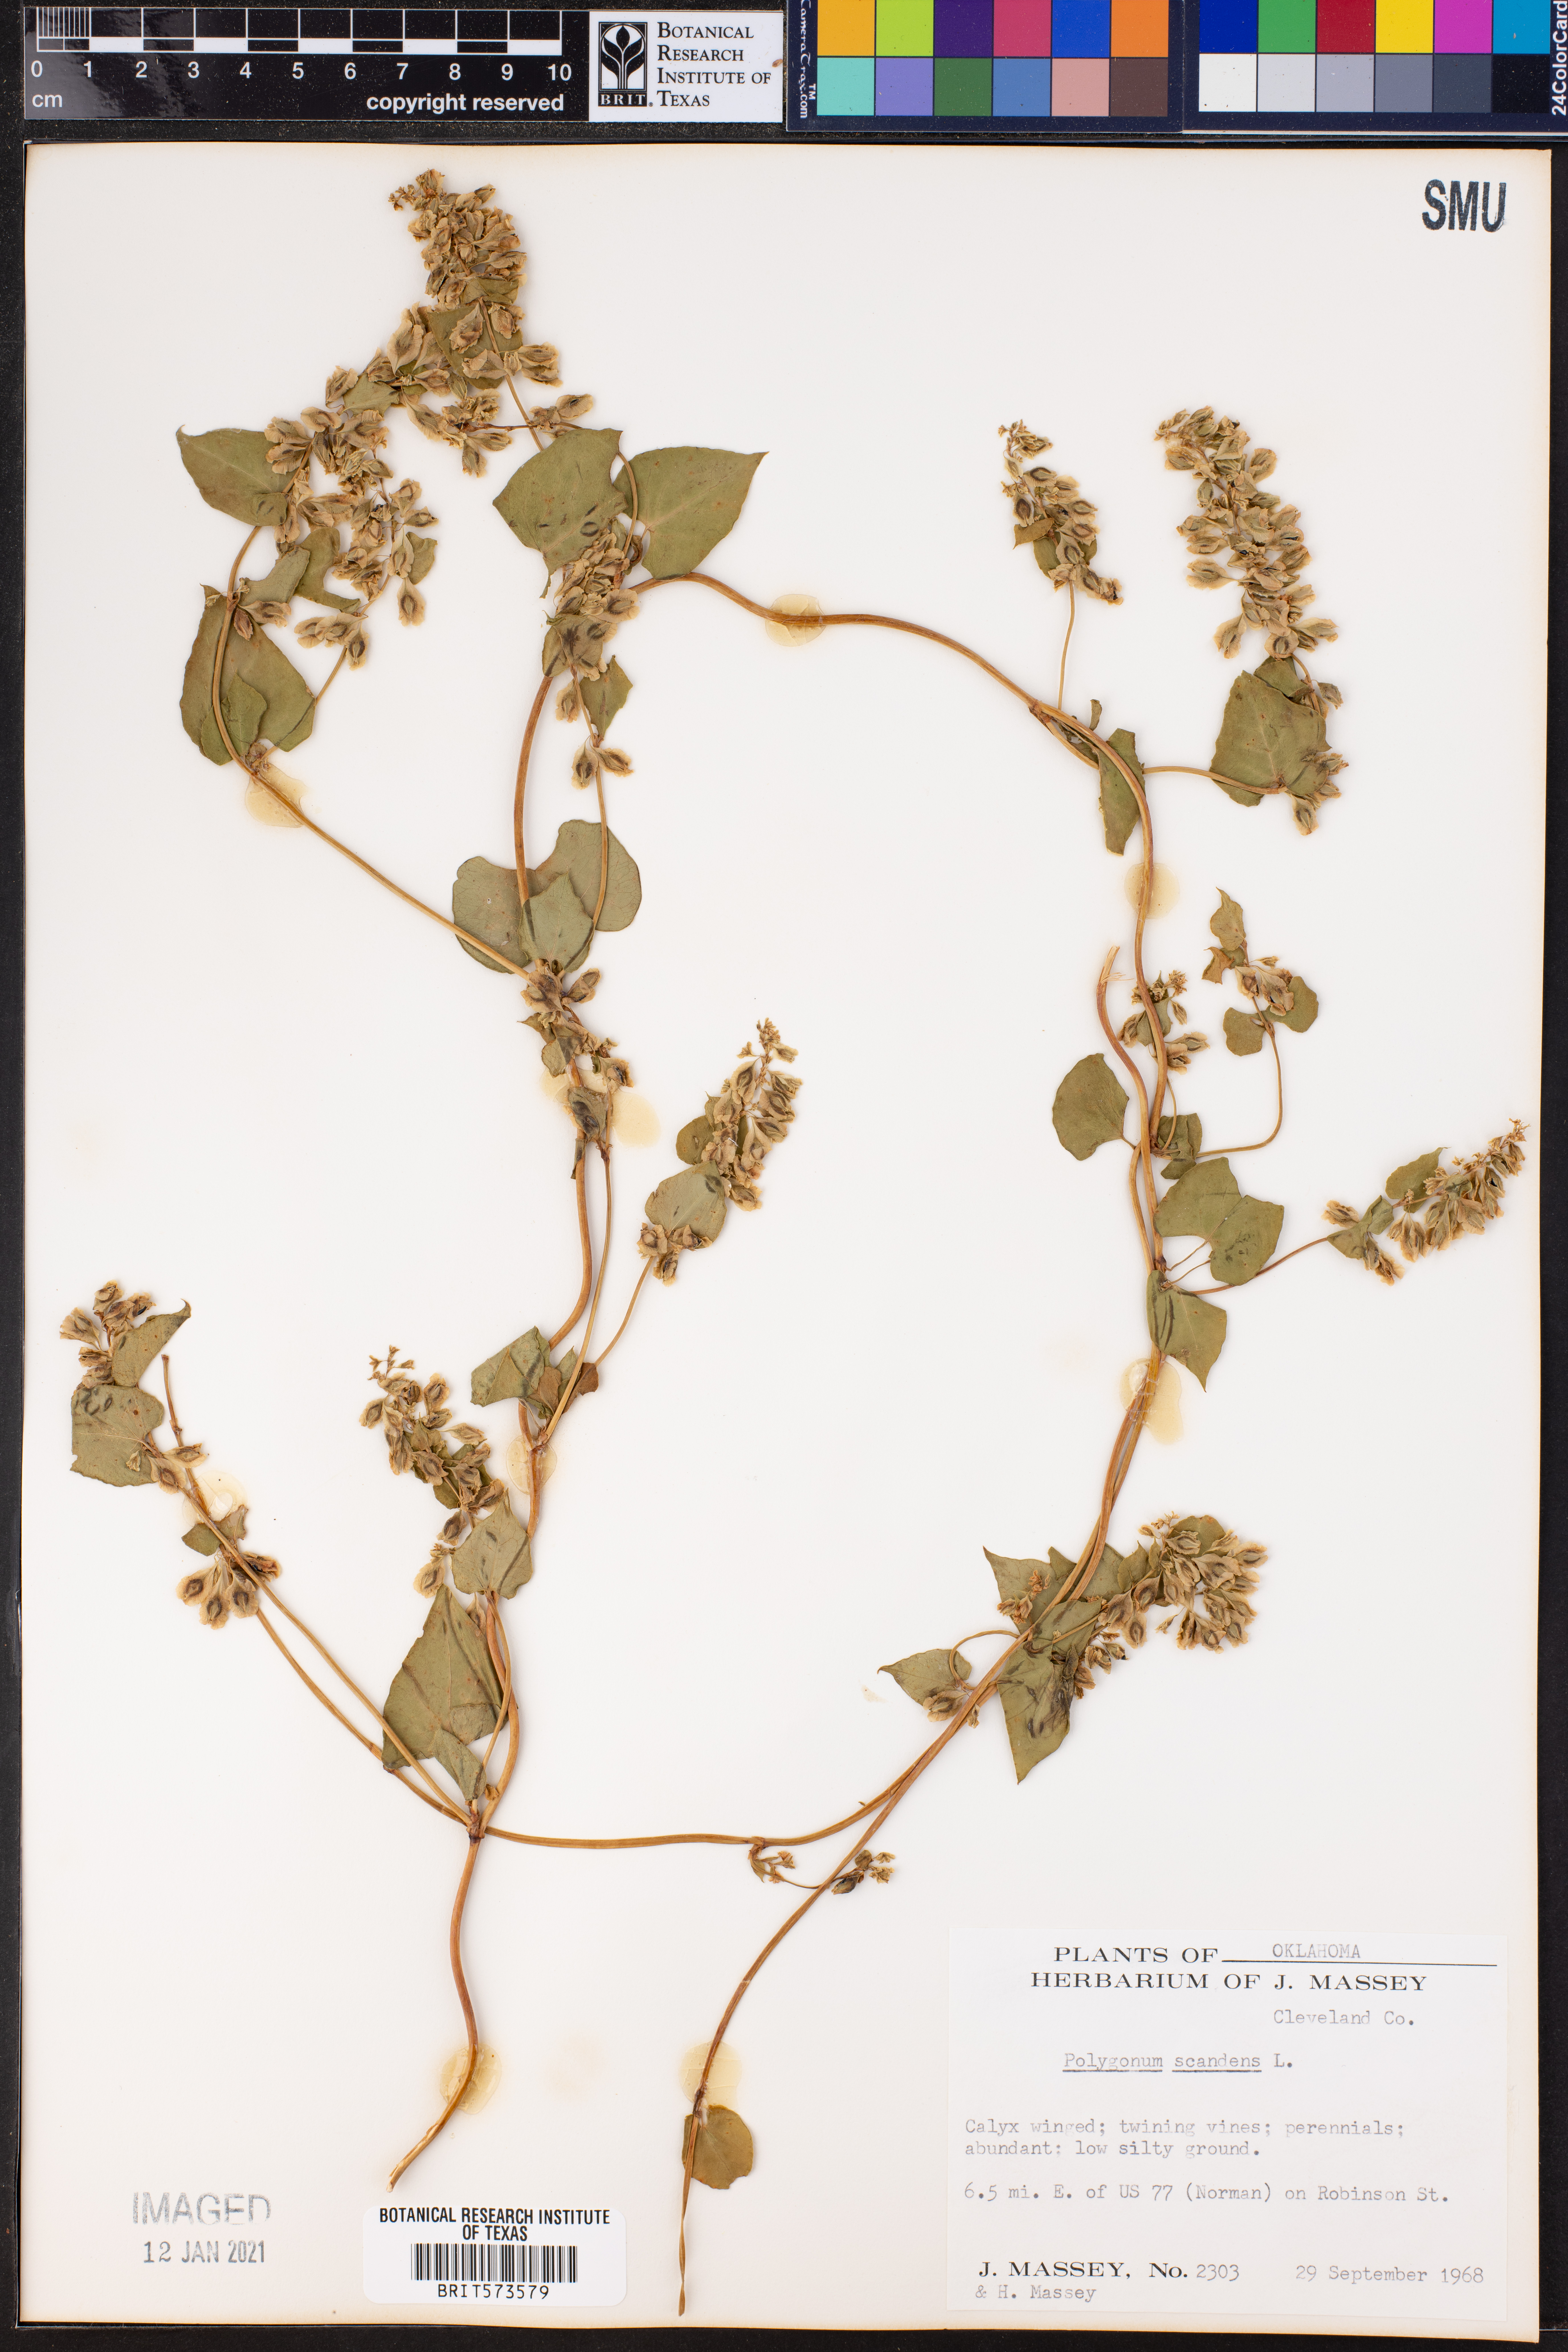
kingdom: Plantae
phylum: Tracheophyta
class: Magnoliopsida
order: Caryophyllales
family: Polygonaceae
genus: Fallopia
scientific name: Fallopia scandens
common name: Climbing false buckwheat
